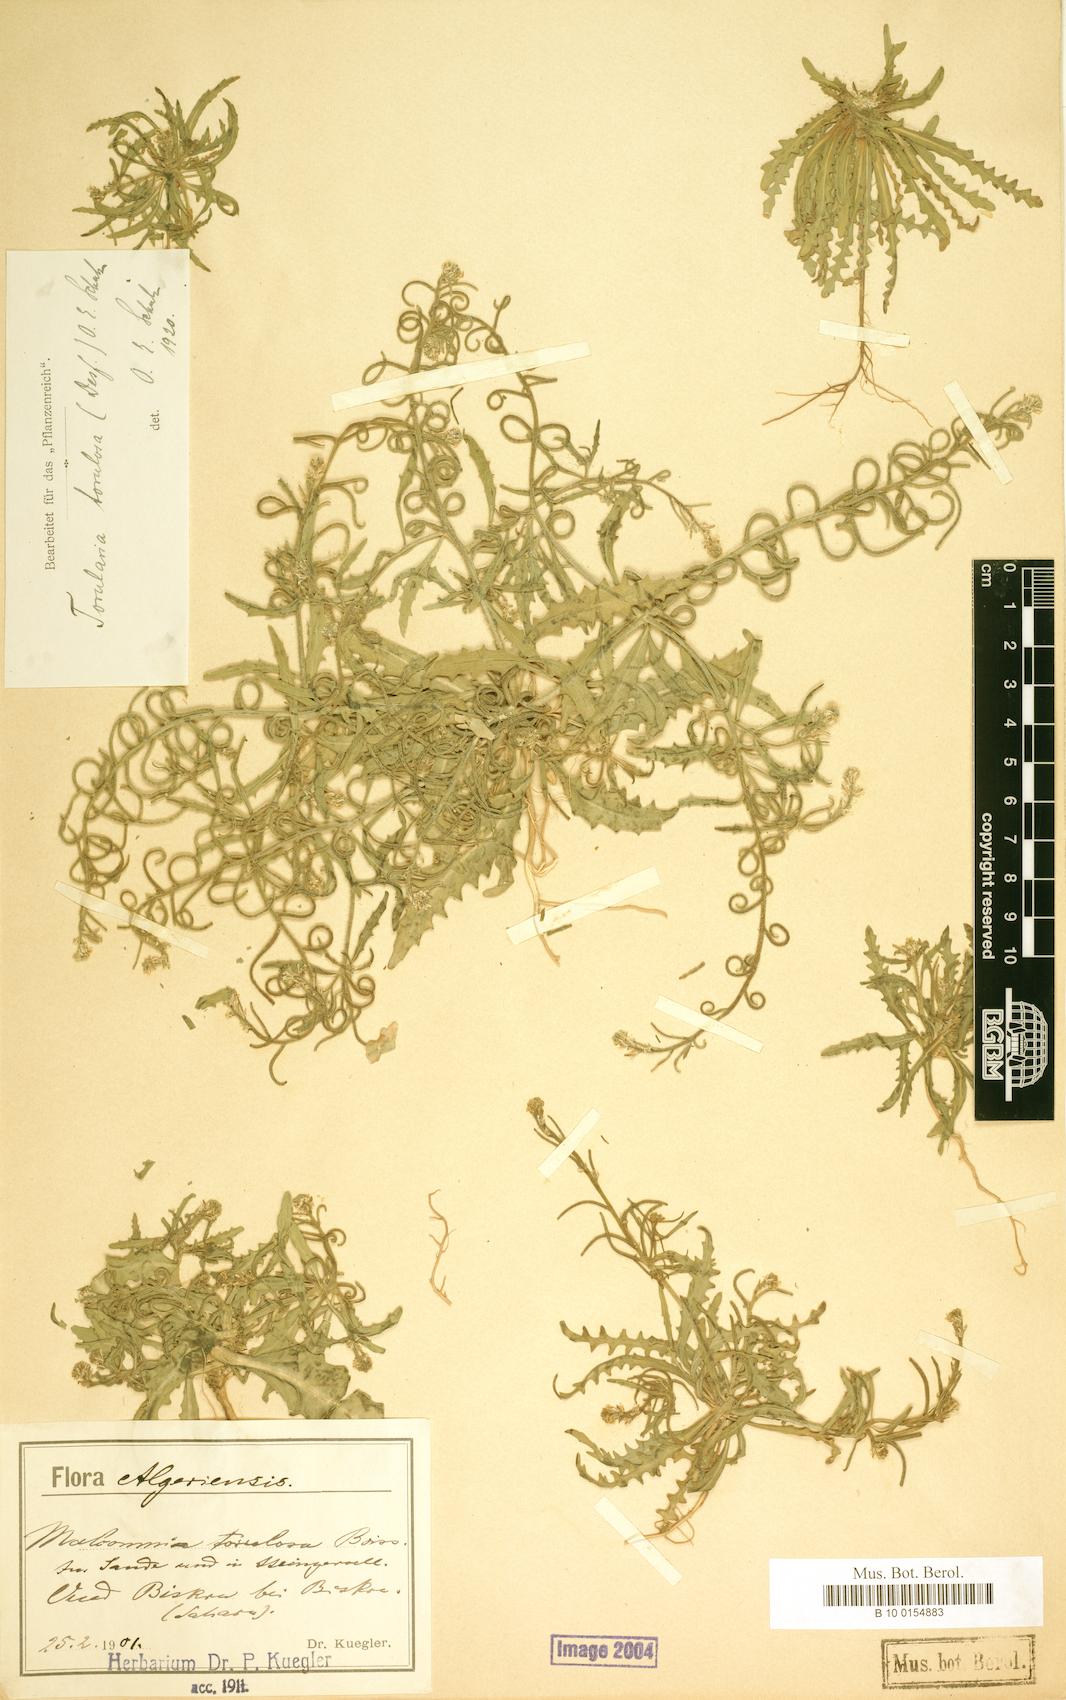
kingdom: Plantae
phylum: Tracheophyta
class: Magnoliopsida
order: Brassicales
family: Brassicaceae
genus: Neotorularia
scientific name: Neotorularia torulosa
